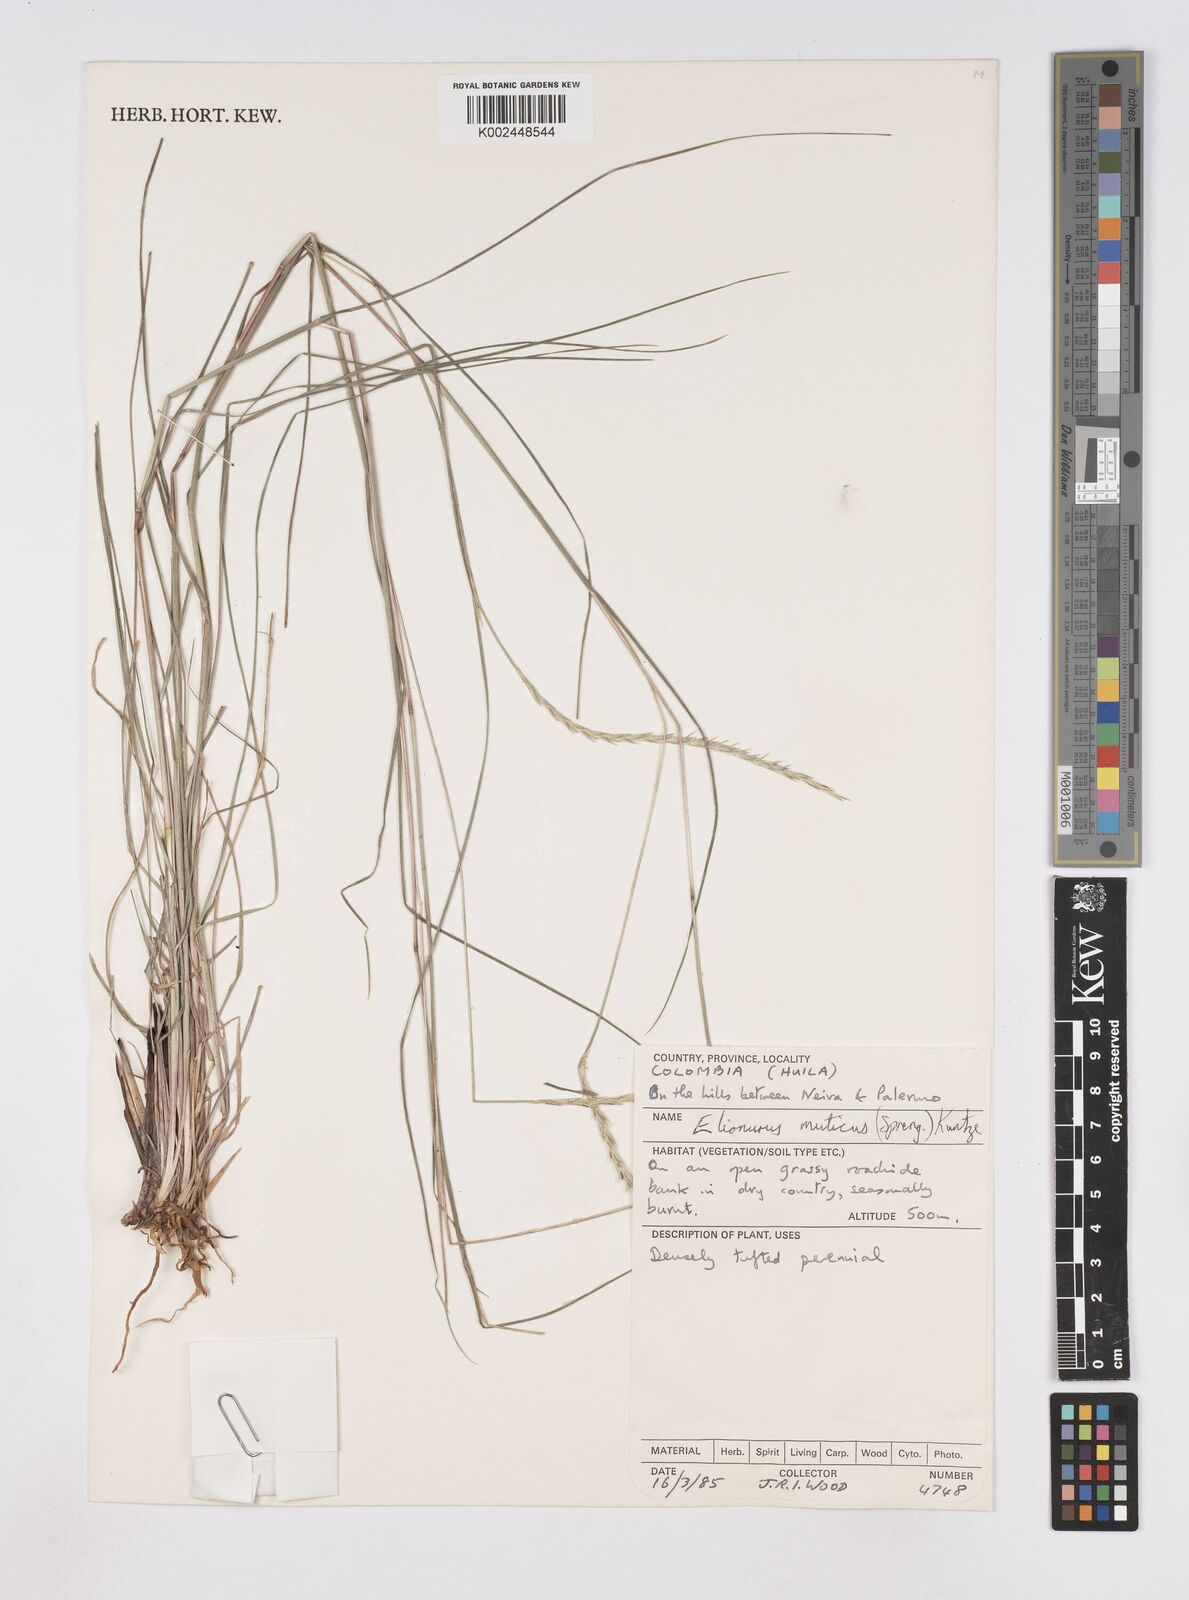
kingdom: Plantae
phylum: Tracheophyta
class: Liliopsida
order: Poales
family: Poaceae
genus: Elionurus
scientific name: Elionurus muticus
